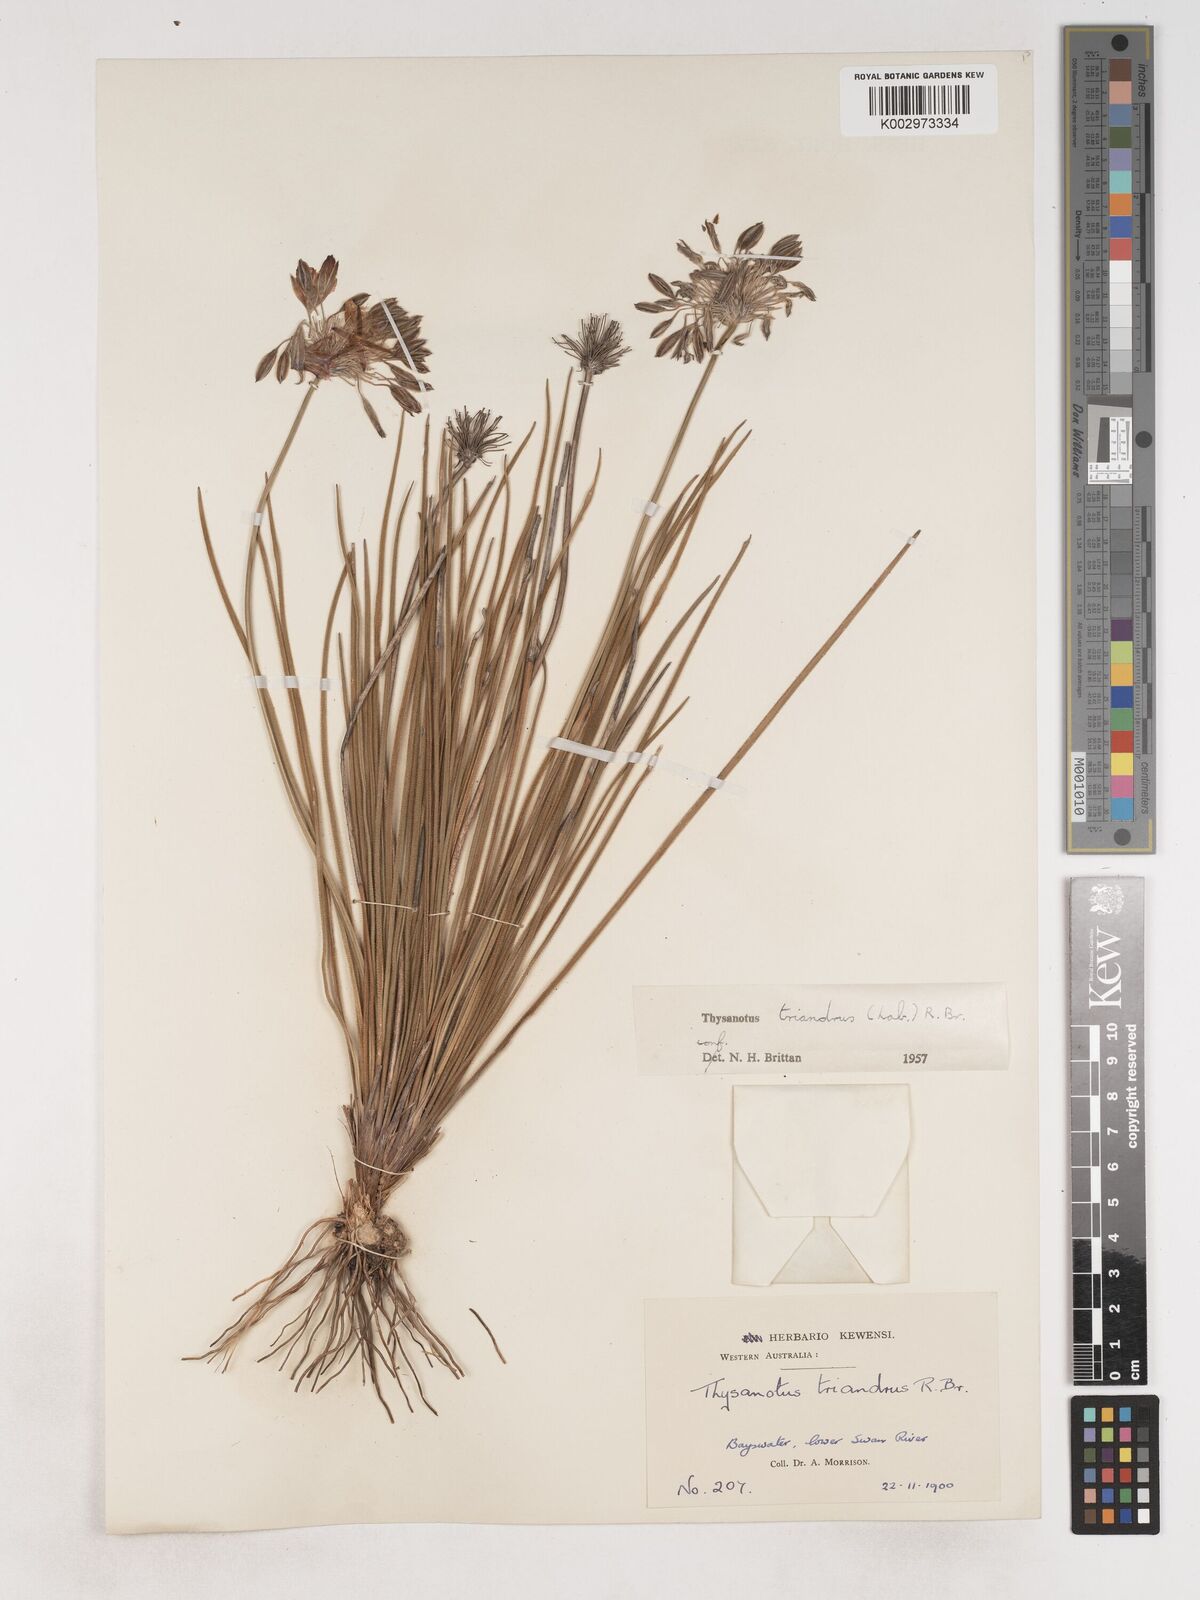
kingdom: Plantae
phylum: Tracheophyta
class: Liliopsida
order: Asparagales
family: Asparagaceae
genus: Thysanotus
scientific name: Thysanotus triandrus
